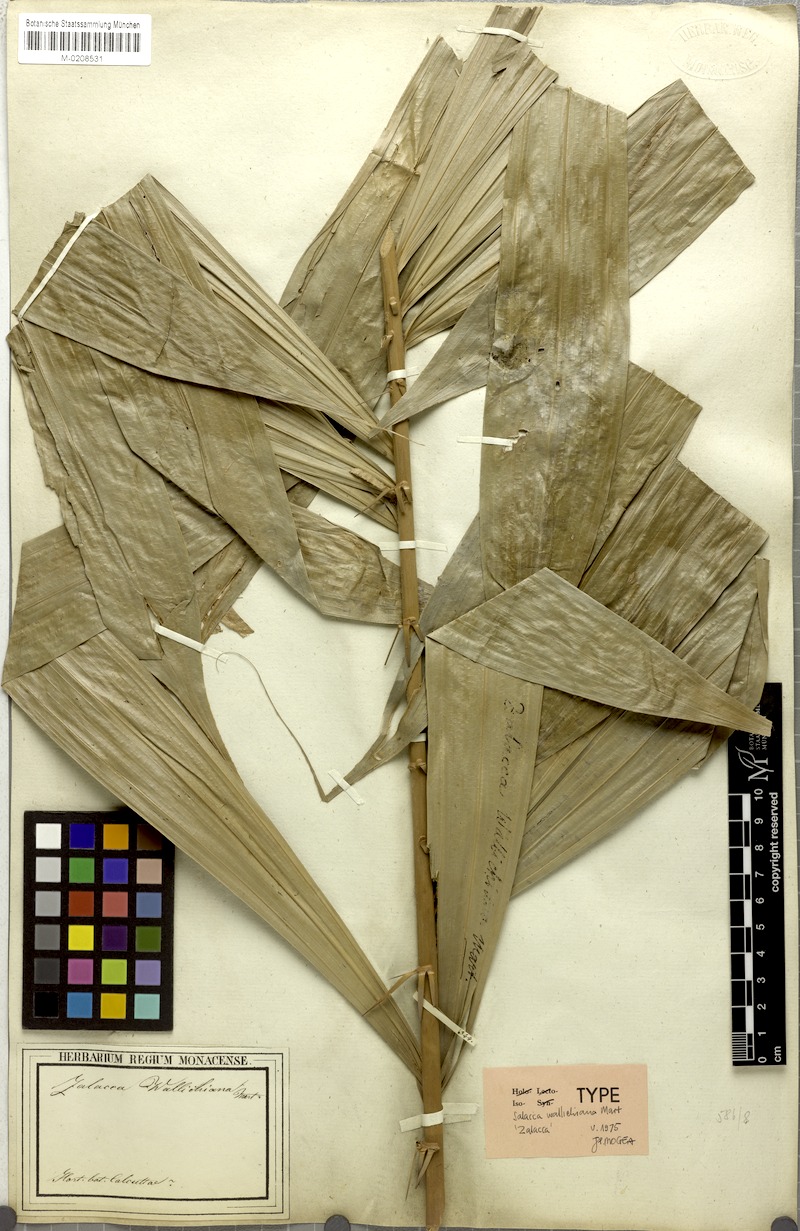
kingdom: Plantae
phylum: Tracheophyta
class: Liliopsida
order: Arecales
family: Arecaceae
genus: Salacca
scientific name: Salacca wallichiana
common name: Rakum palm
